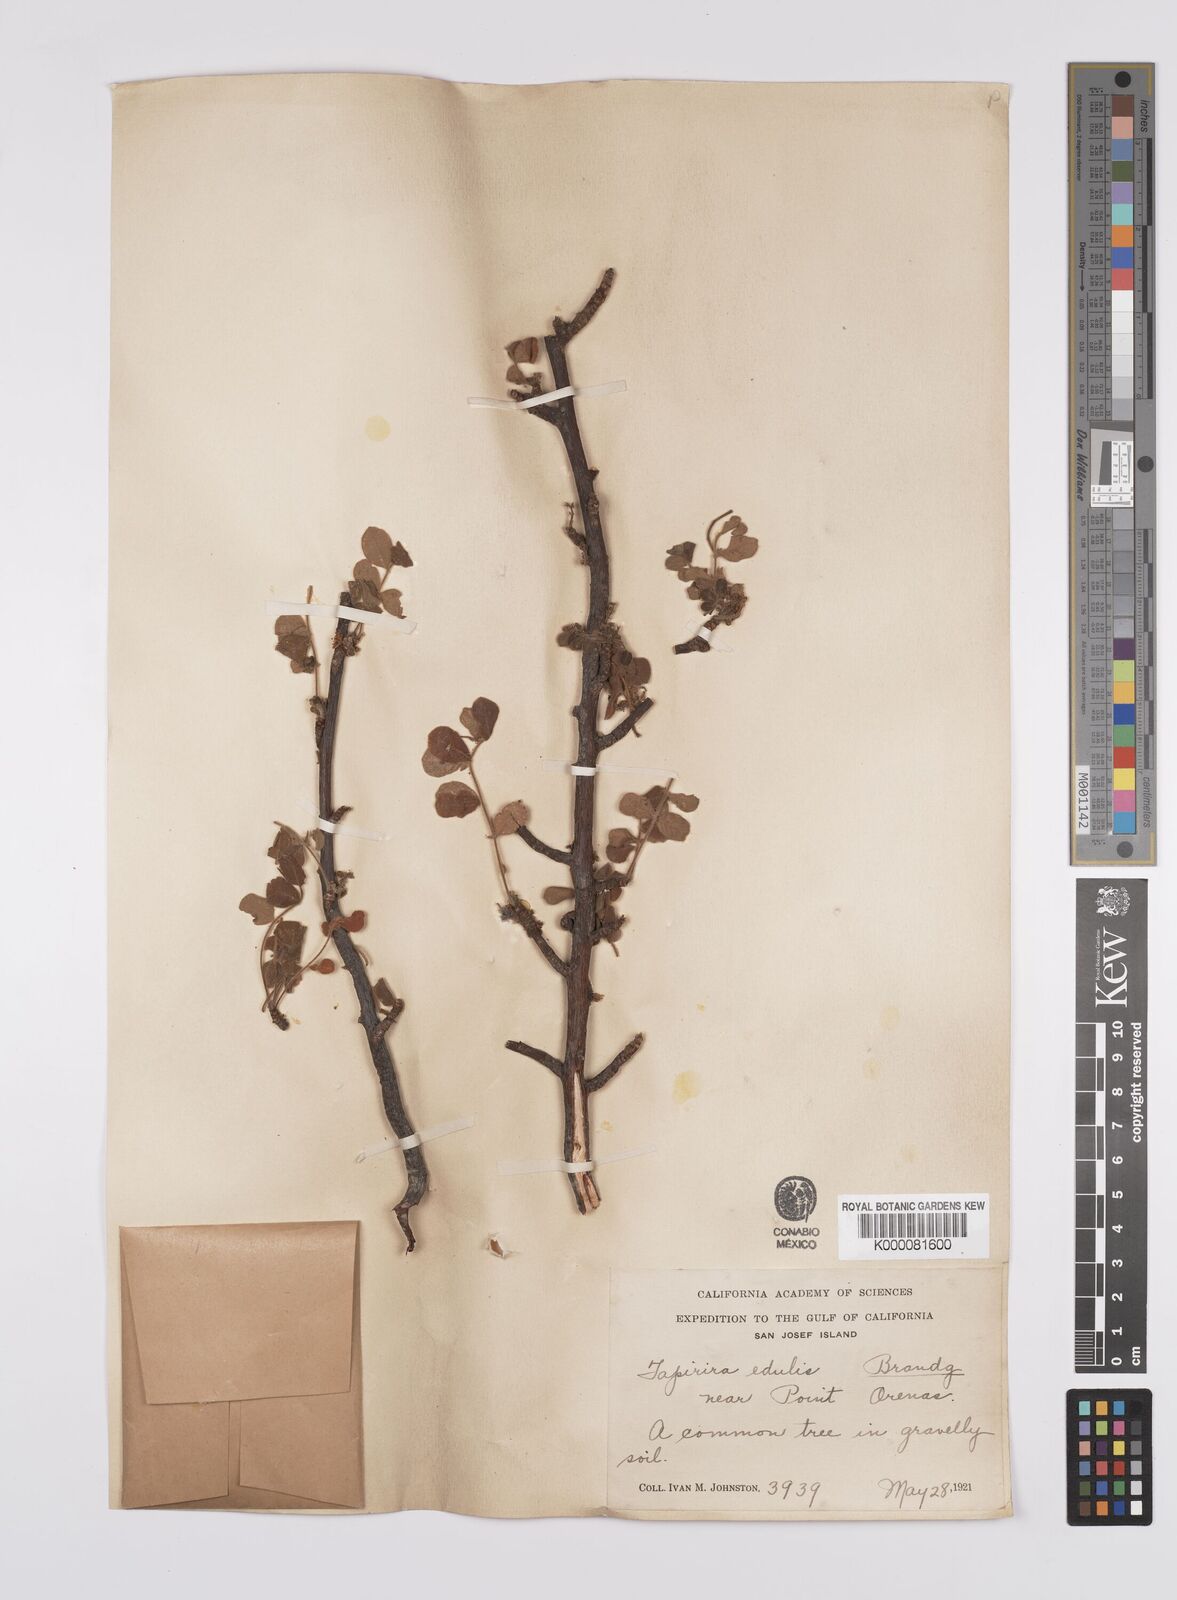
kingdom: Plantae
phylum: Tracheophyta
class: Magnoliopsida
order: Sapindales
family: Anacardiaceae
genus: Cyrtocarpa
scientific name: Cyrtocarpa edulis
